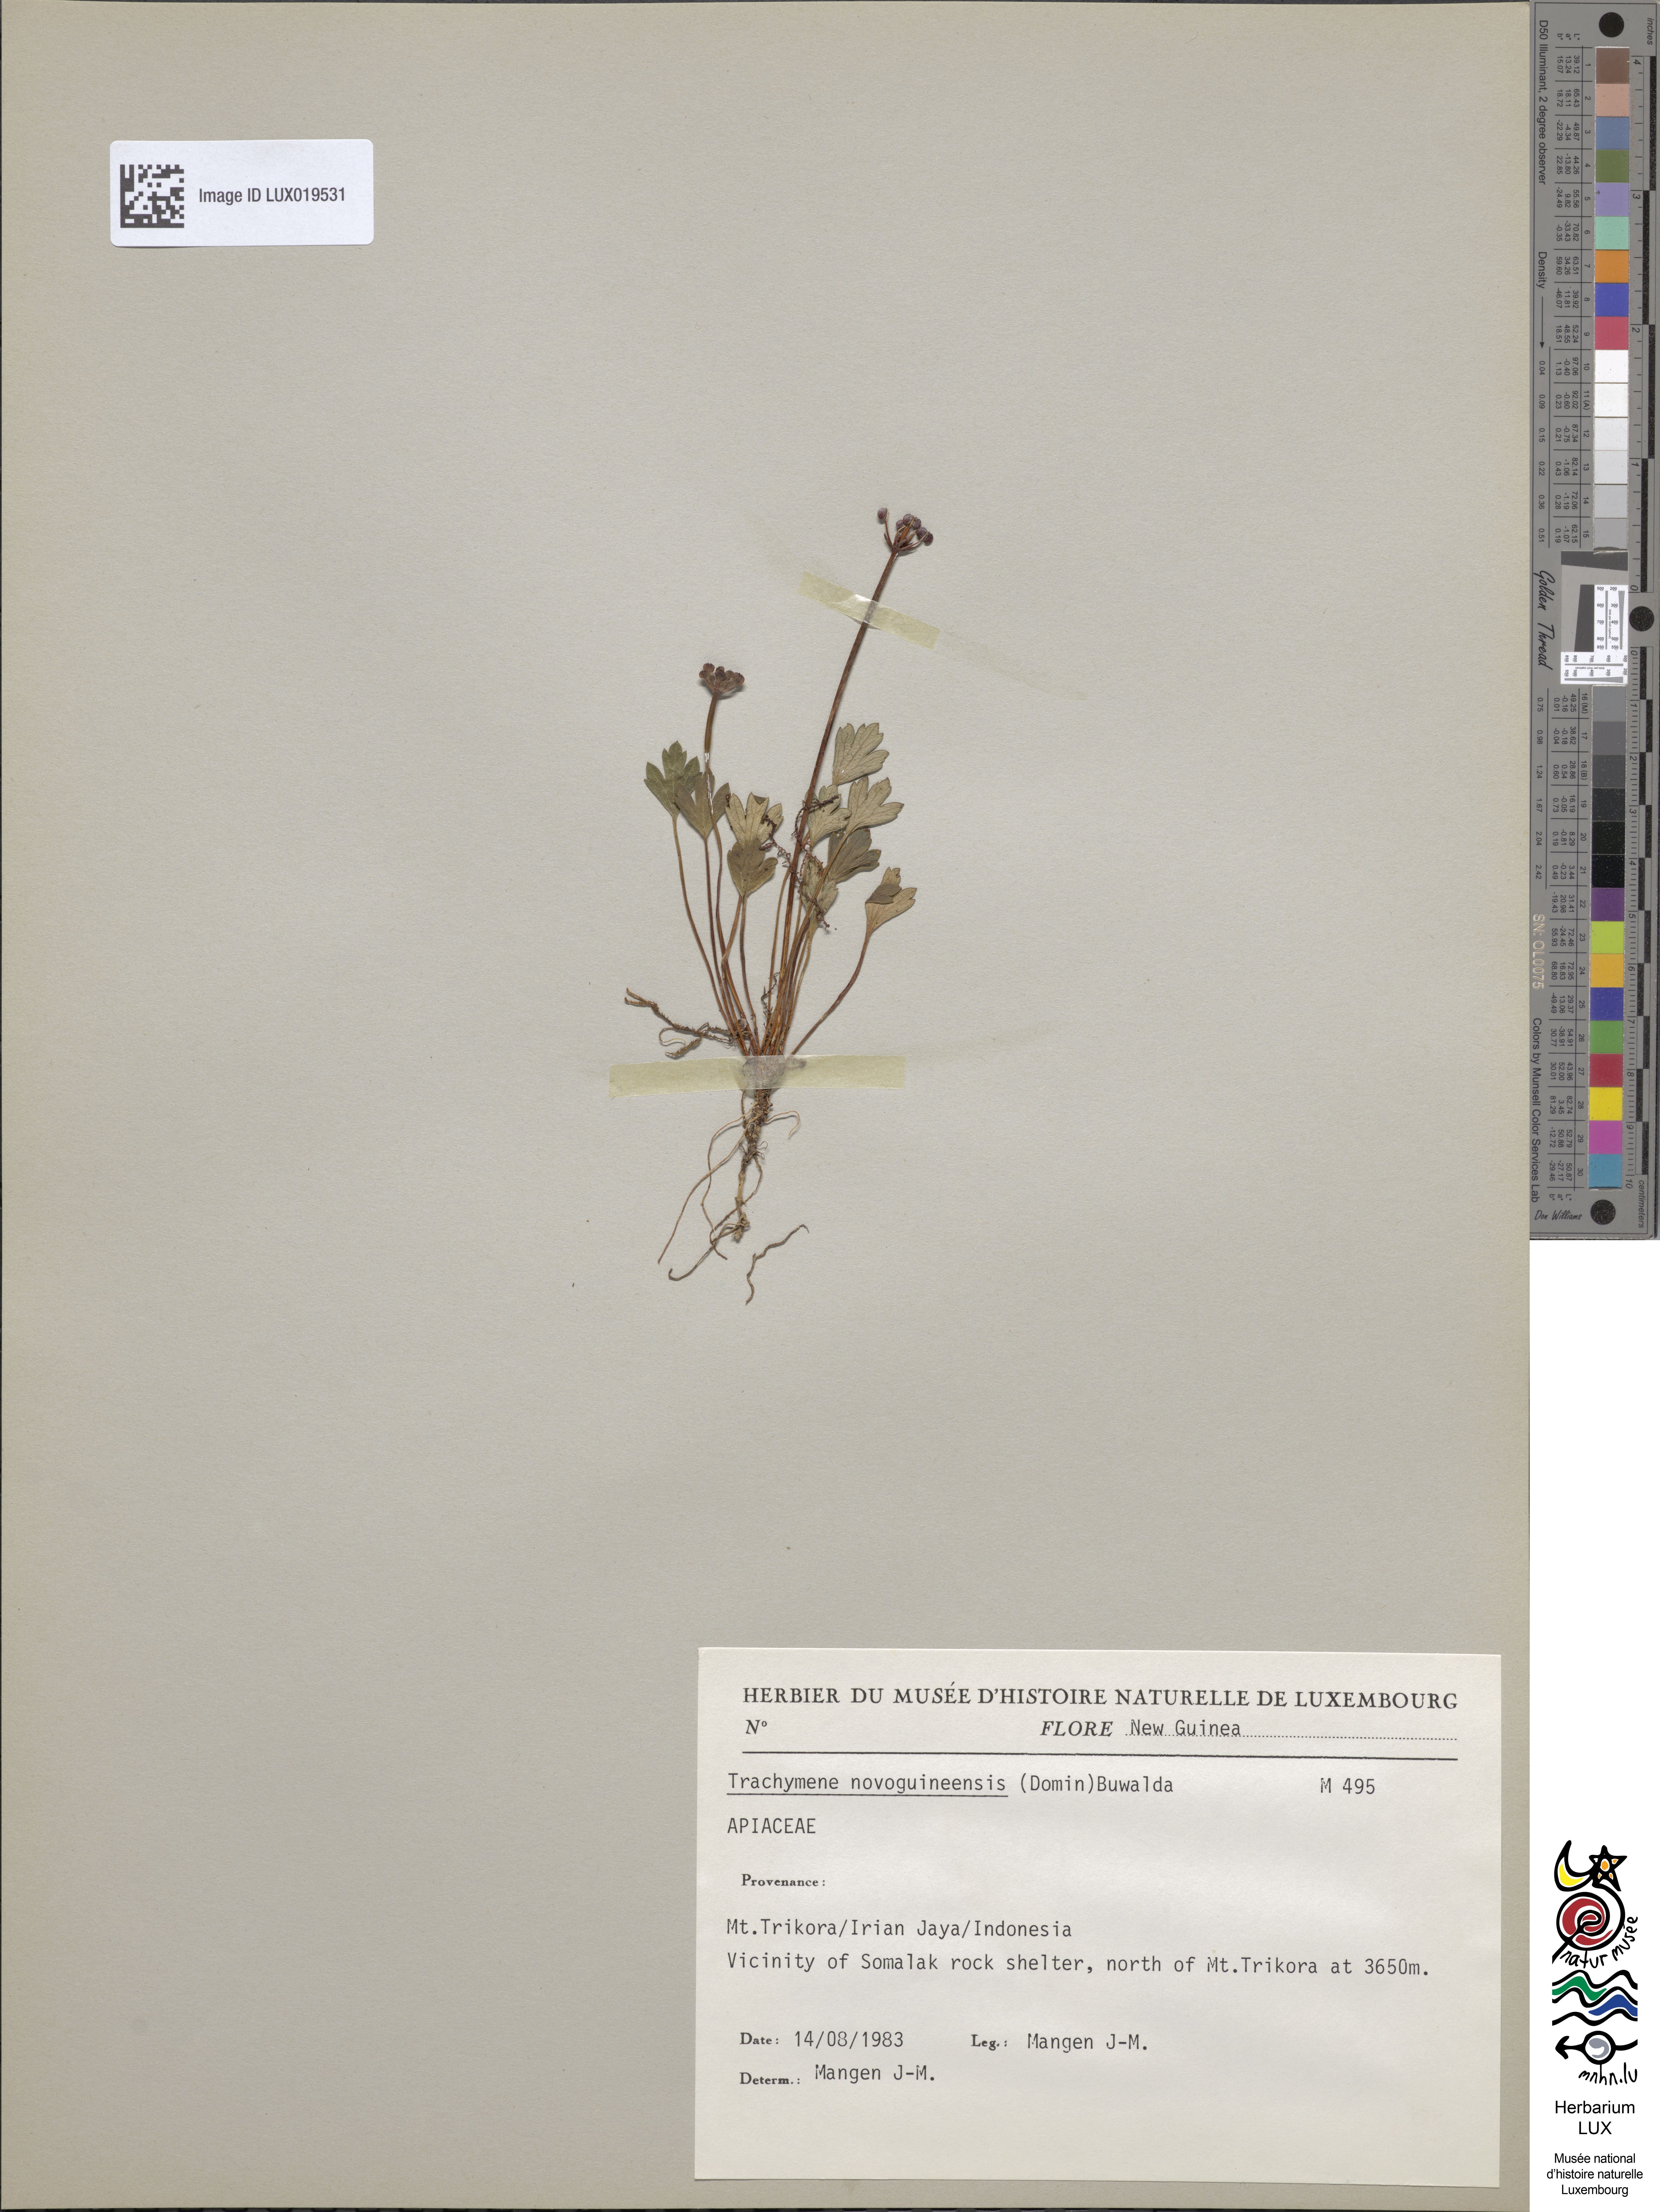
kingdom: Plantae
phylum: Tracheophyta
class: Magnoliopsida
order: Apiales
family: Araliaceae
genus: Trachymene
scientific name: Trachymene novoguineensis
